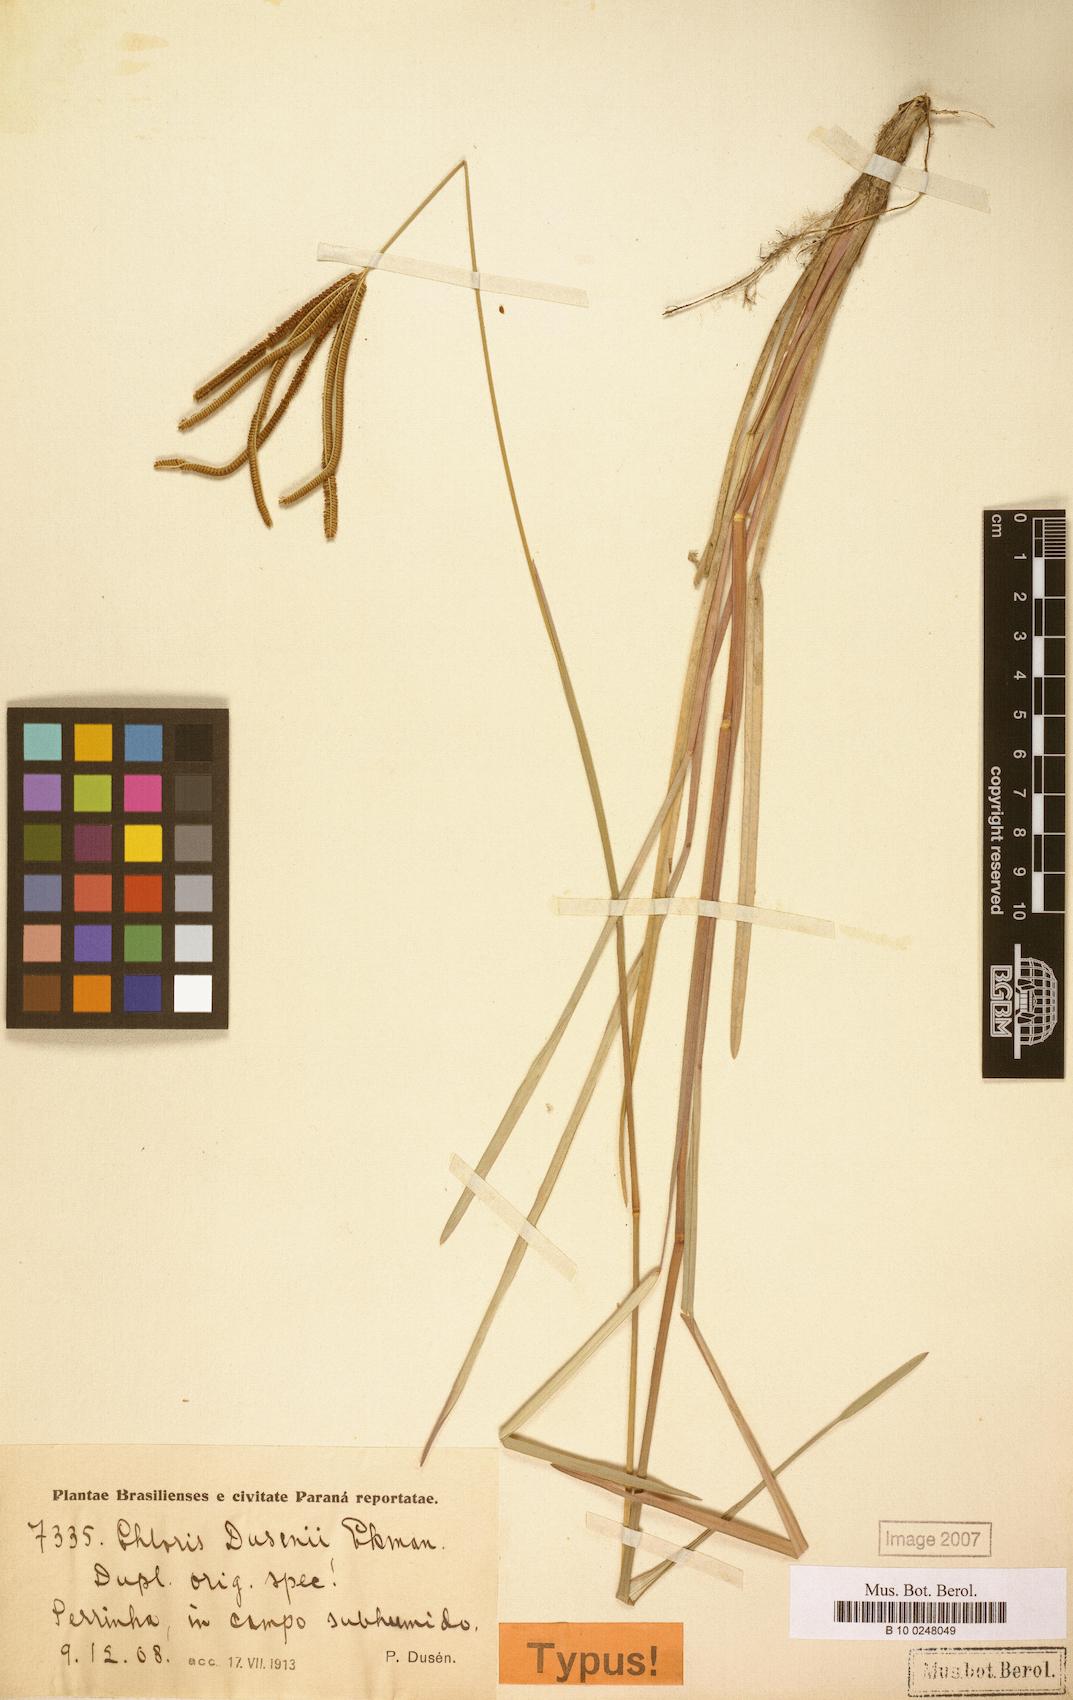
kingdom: Plantae
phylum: Tracheophyta
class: Liliopsida
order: Poales
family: Poaceae
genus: Eustachys
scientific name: Eustachys petraea
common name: Pinewoods fingergrass
